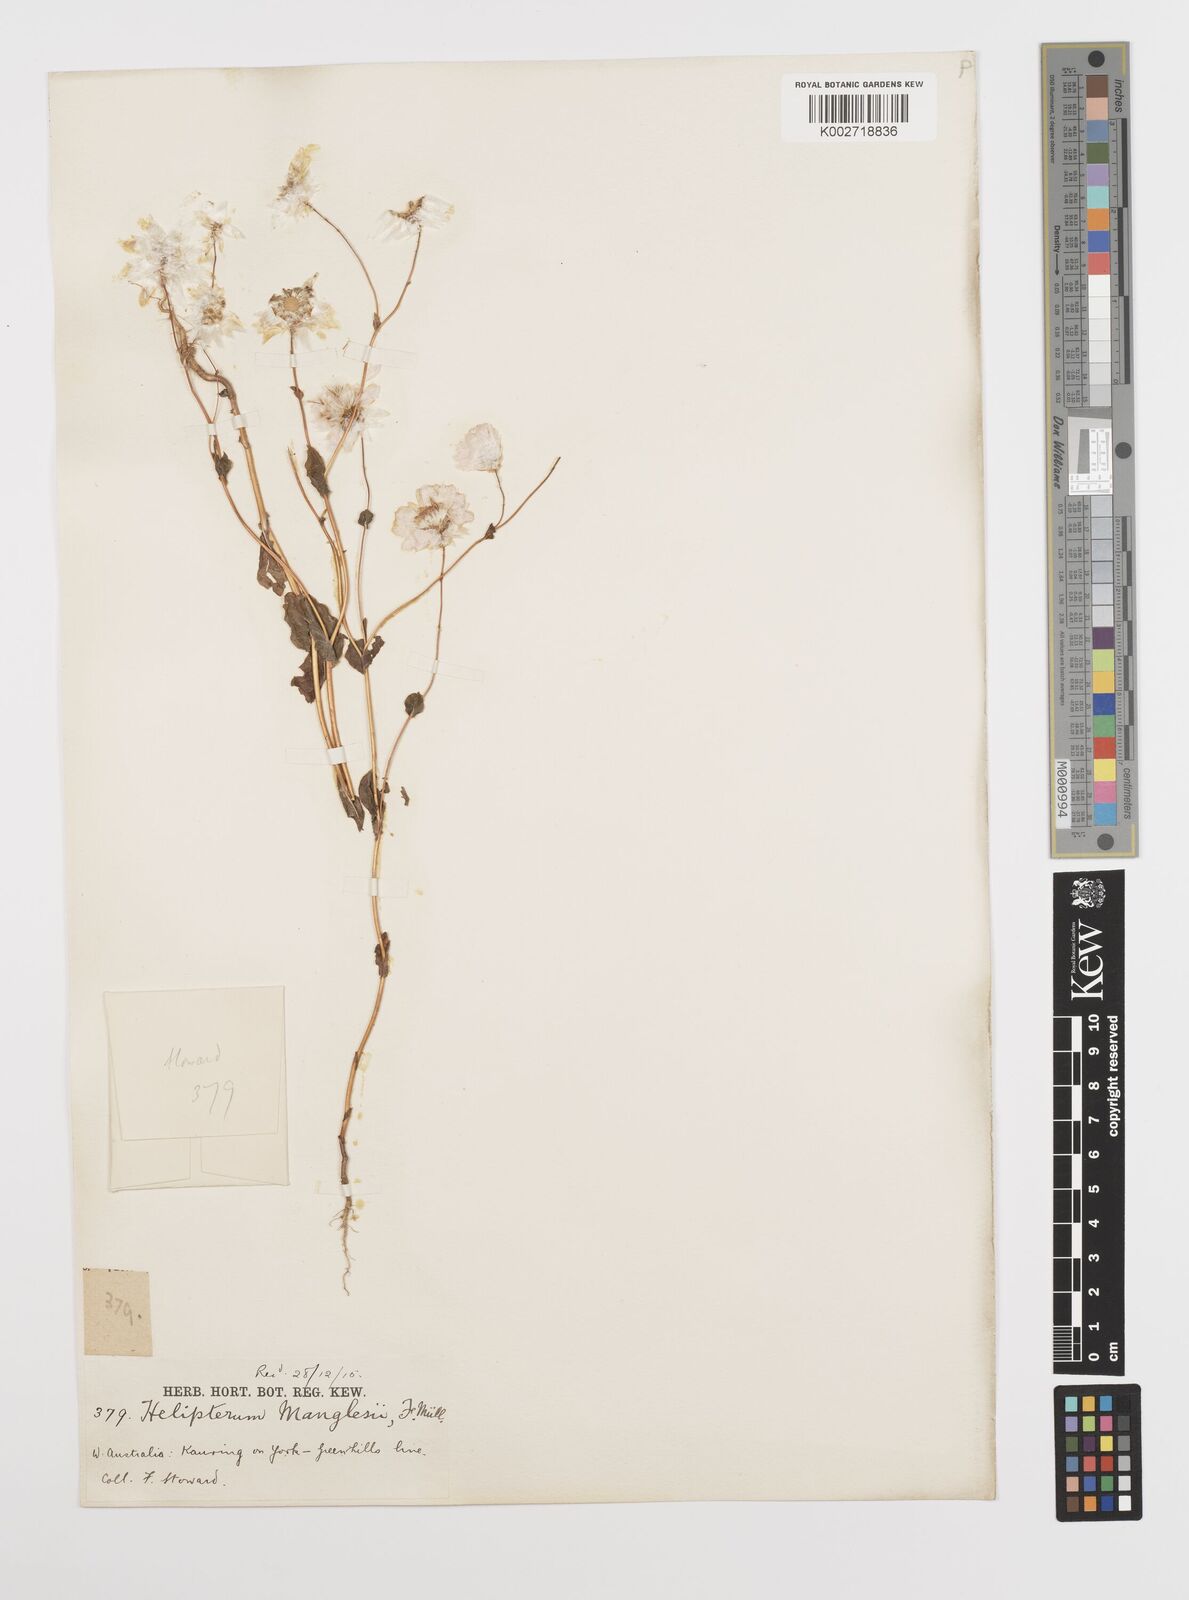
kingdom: Plantae
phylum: Tracheophyta
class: Magnoliopsida
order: Asterales
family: Asteraceae
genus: Rhodanthe
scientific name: Rhodanthe manglesii
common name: Pink sunray
